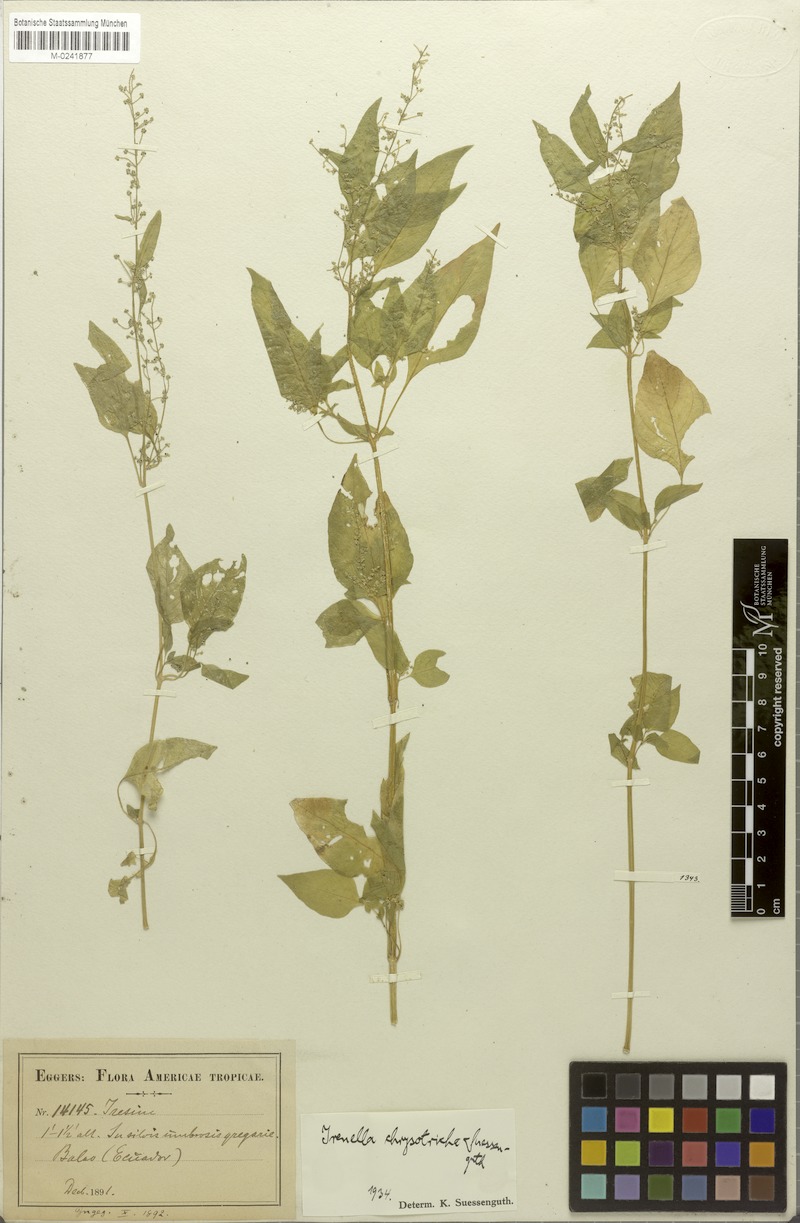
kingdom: Plantae
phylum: Tracheophyta
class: Magnoliopsida
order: Caryophyllales
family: Amaranthaceae
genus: Iresine
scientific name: Iresine chrysotricha
